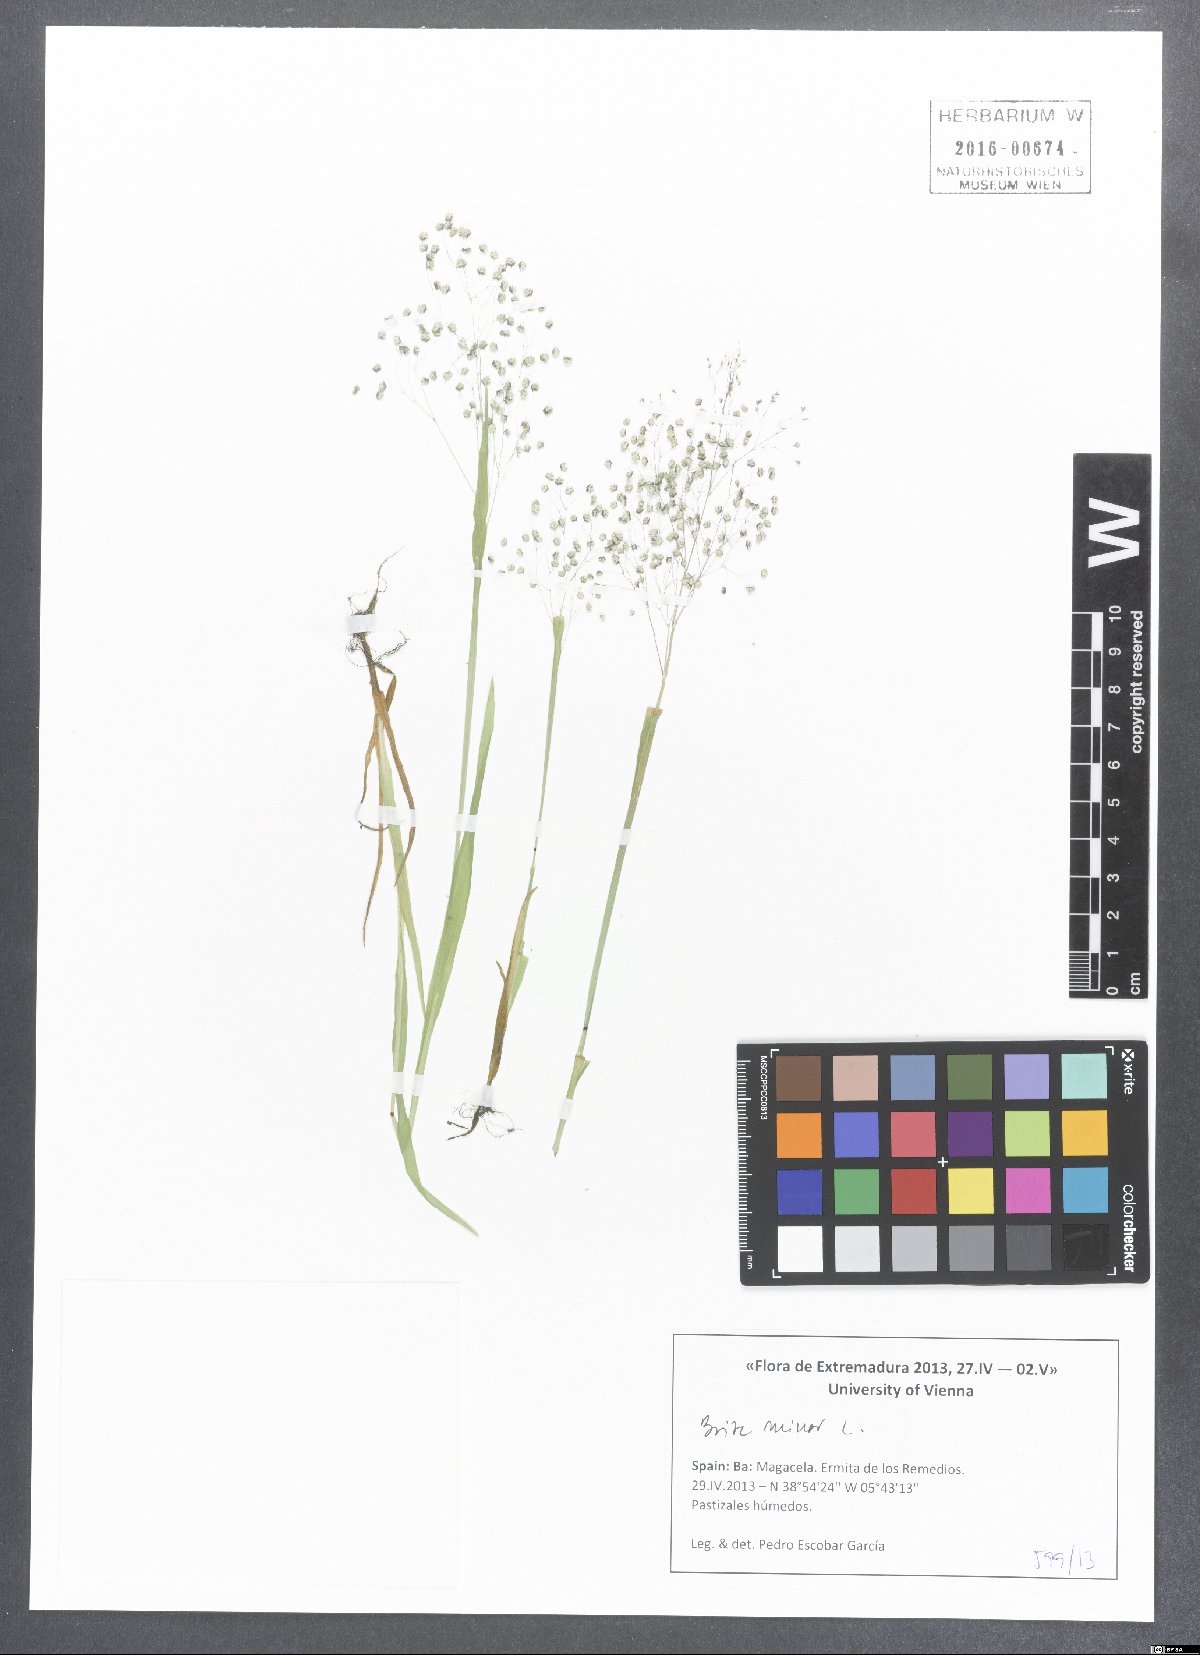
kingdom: Plantae
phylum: Tracheophyta
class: Liliopsida
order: Poales
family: Poaceae
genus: Briza
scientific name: Briza minor
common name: Lesser quaking-grass
